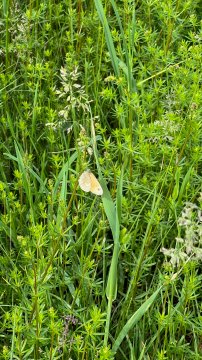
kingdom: Animalia
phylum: Arthropoda
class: Insecta
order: Lepidoptera
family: Nymphalidae
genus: Coenonympha
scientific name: Coenonympha tullia
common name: Large Heath
